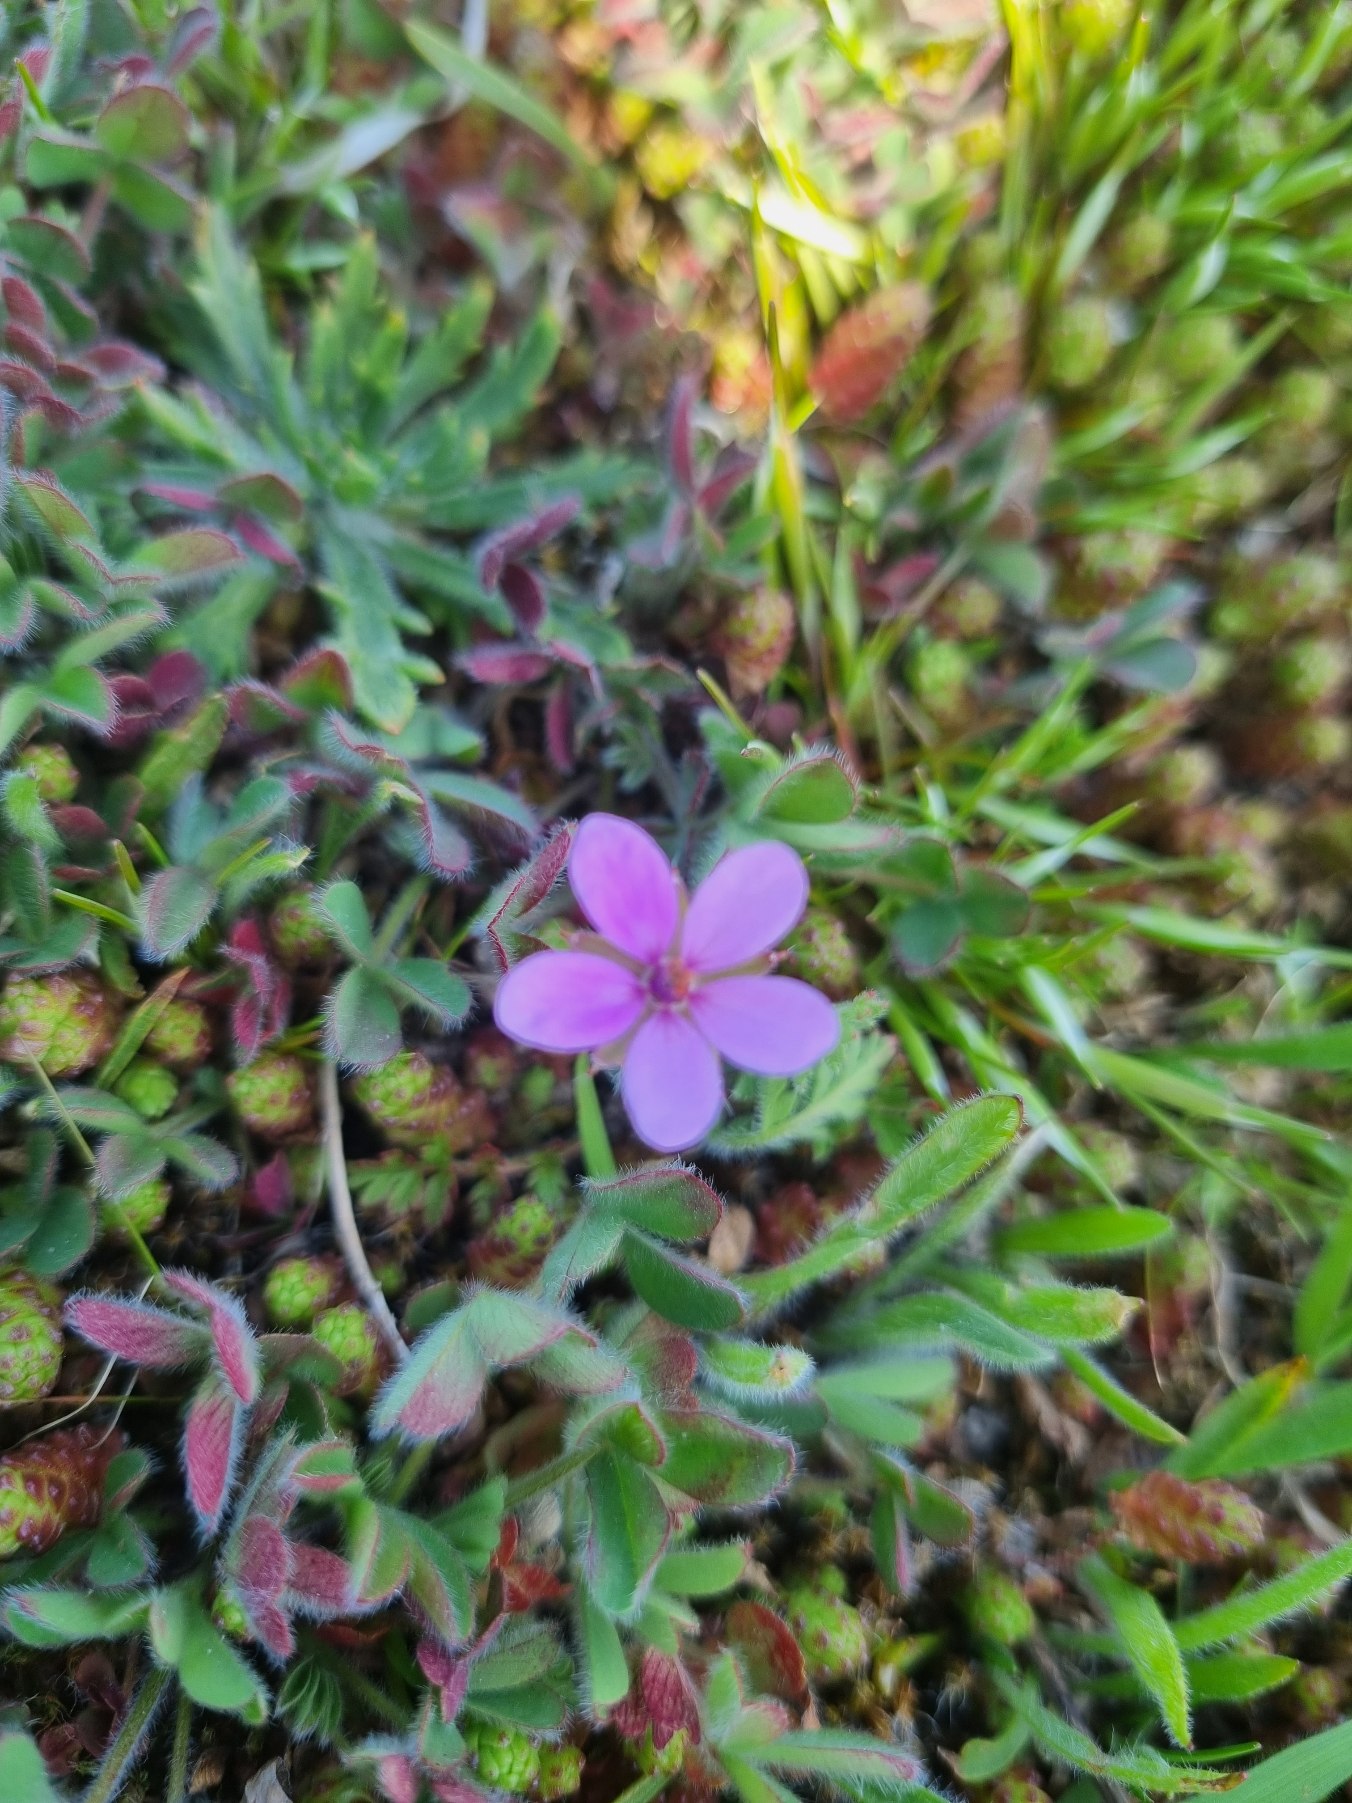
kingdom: Plantae
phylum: Tracheophyta
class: Magnoliopsida
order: Geraniales
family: Geraniaceae
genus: Erodium
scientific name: Erodium cicutarium
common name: Hejrenæb
